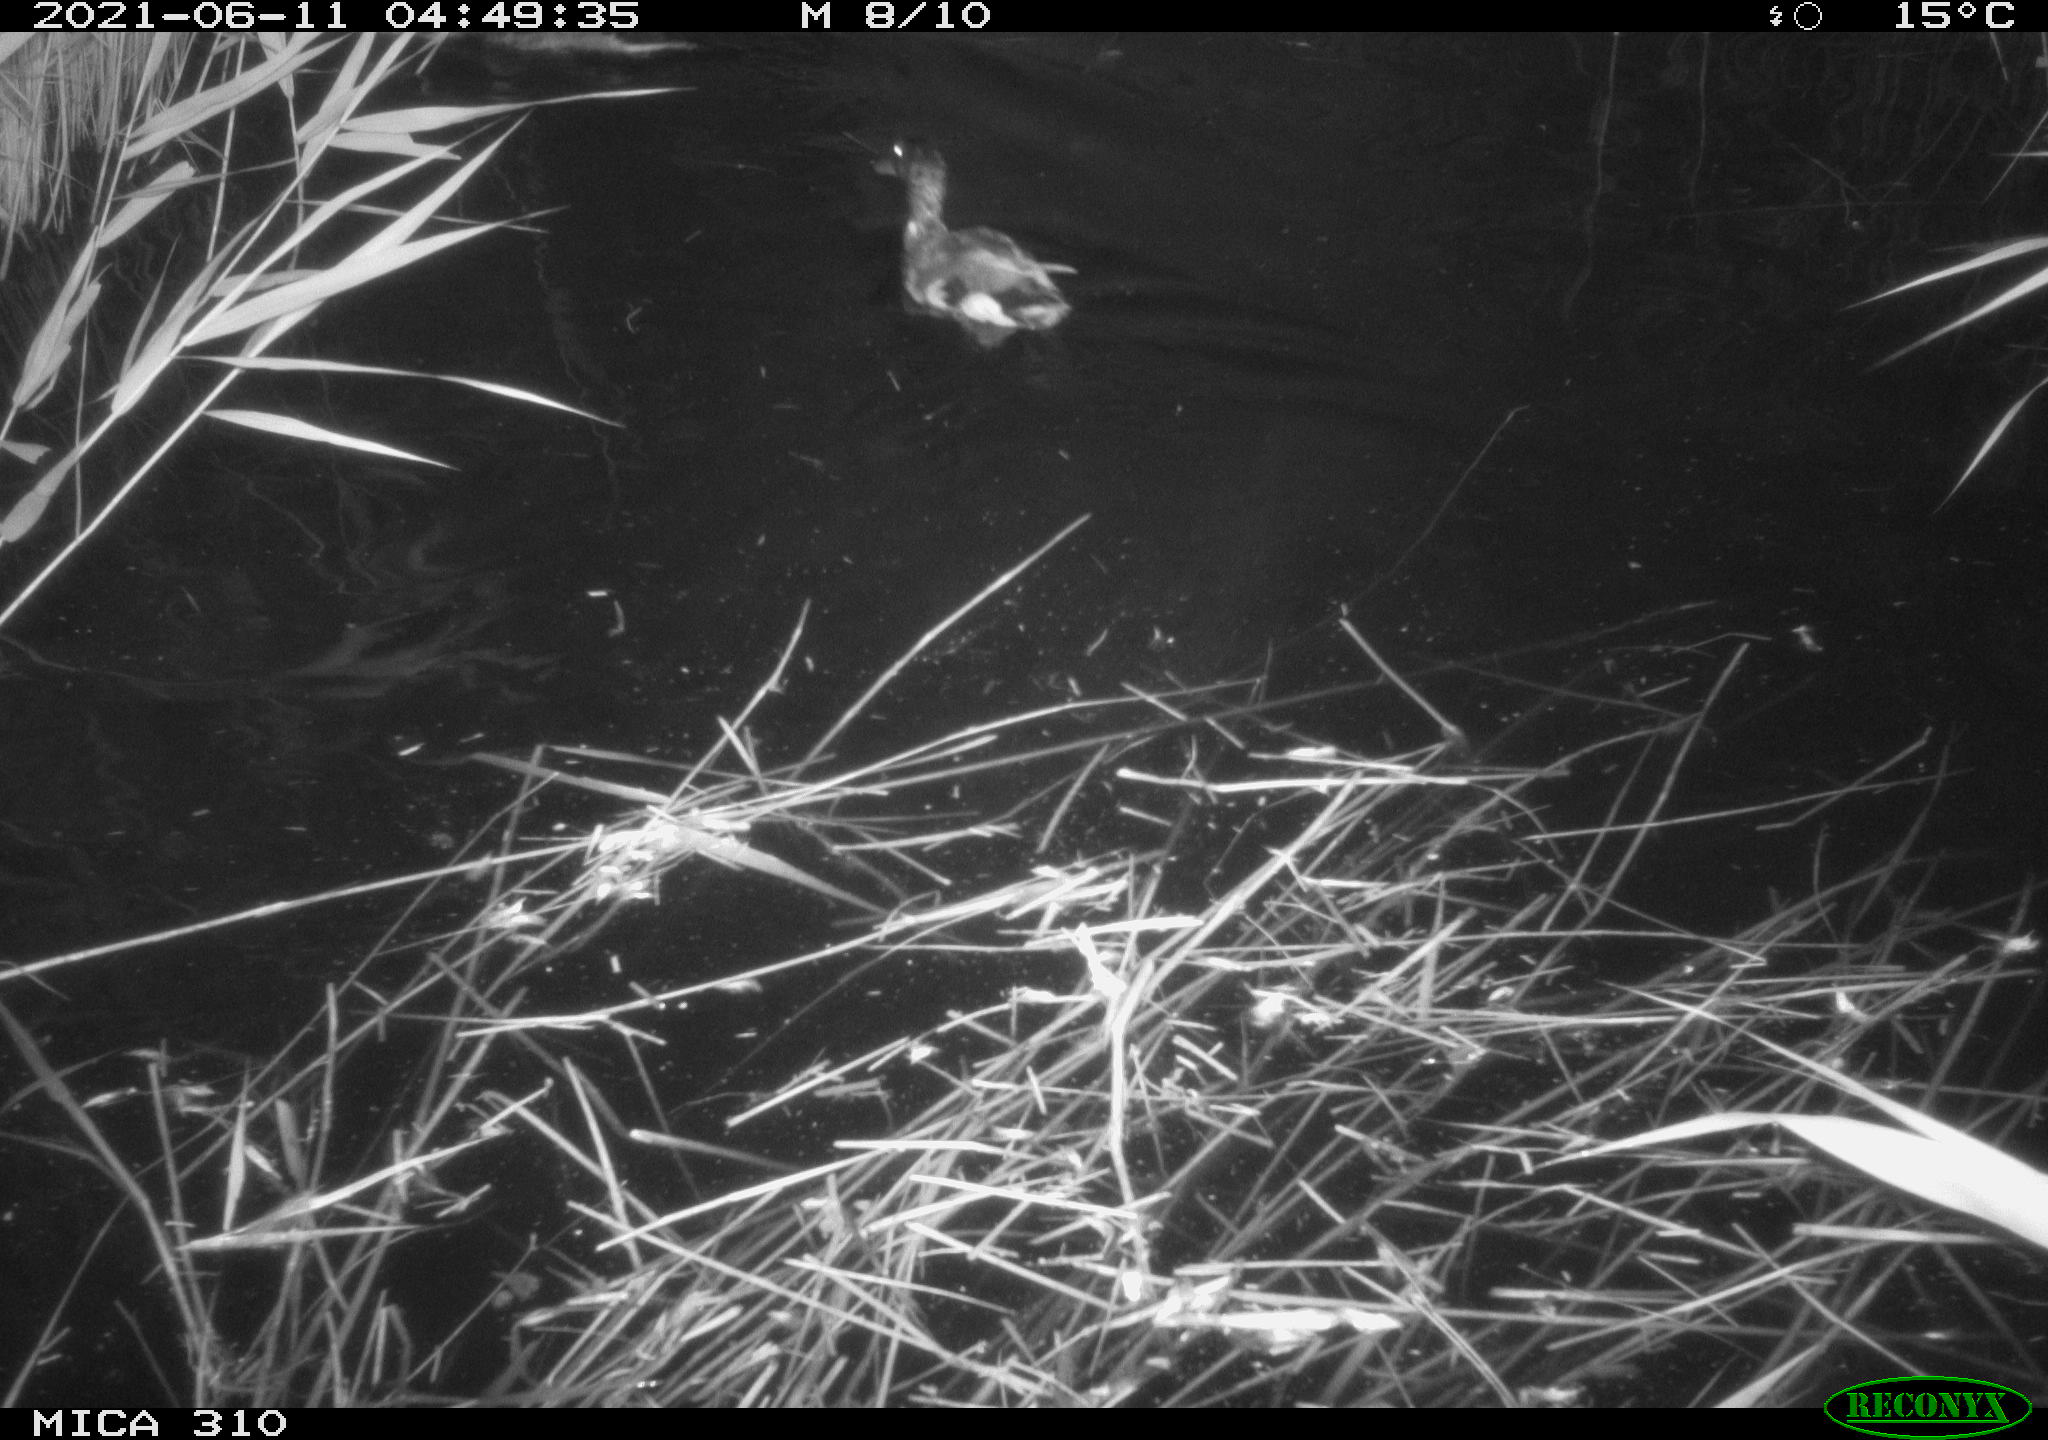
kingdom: Animalia
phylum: Chordata
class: Aves
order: Anseriformes
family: Anatidae
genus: Anas
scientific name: Anas
